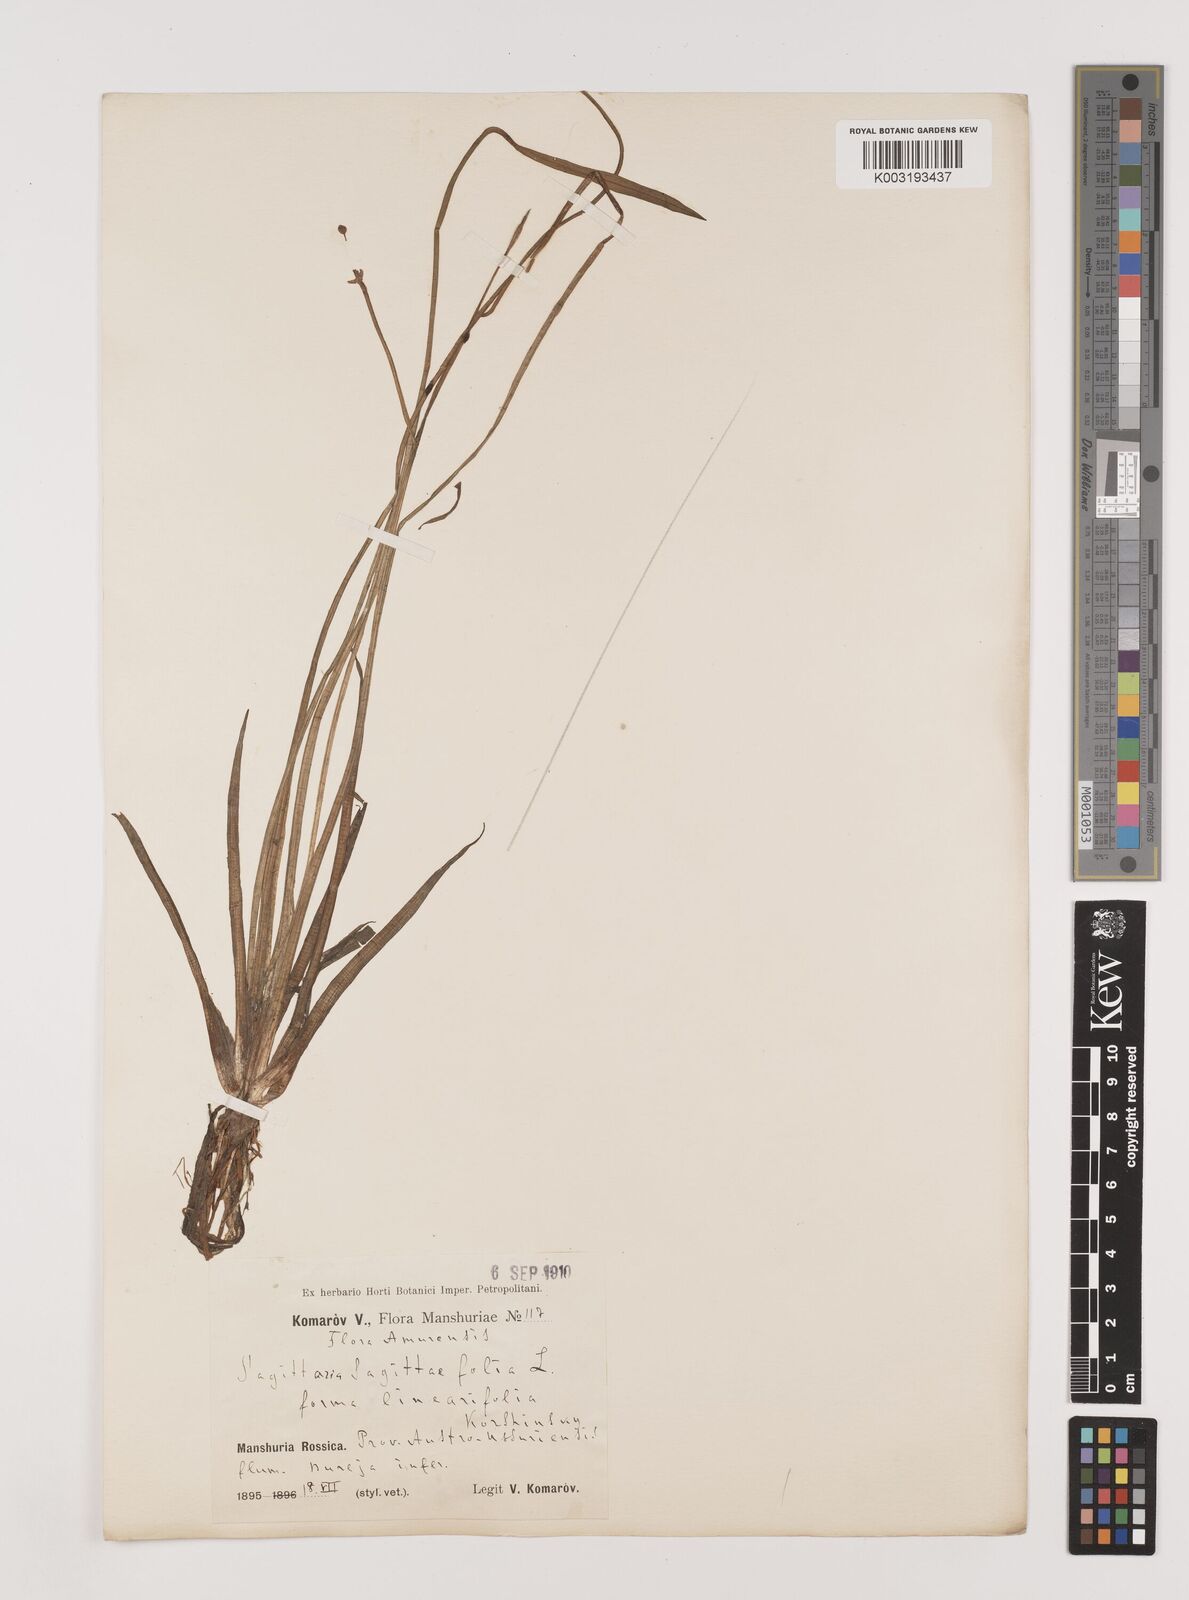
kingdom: Plantae
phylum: Tracheophyta
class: Liliopsida
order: Alismatales
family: Alismataceae
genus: Sagittaria
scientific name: Sagittaria trifolia
